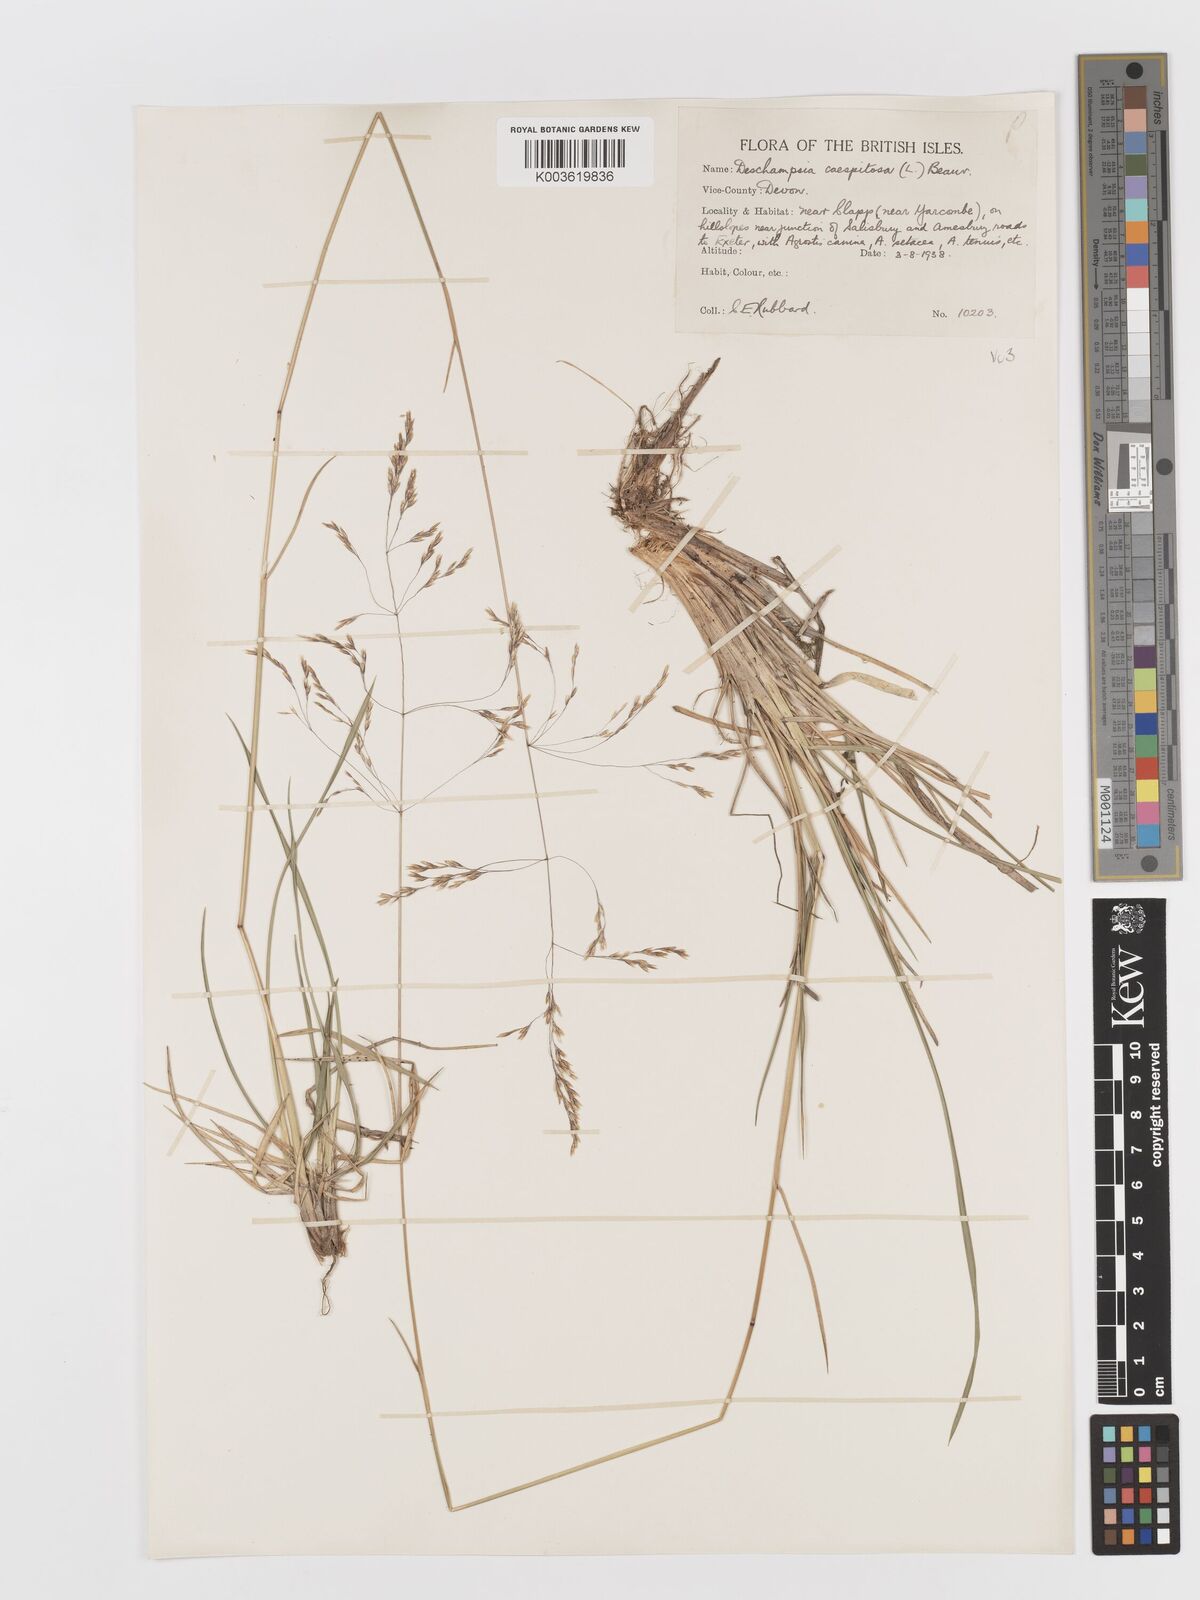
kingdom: Plantae
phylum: Tracheophyta
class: Liliopsida
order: Poales
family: Poaceae
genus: Deschampsia
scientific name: Deschampsia cespitosa
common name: Tufted hair-grass
